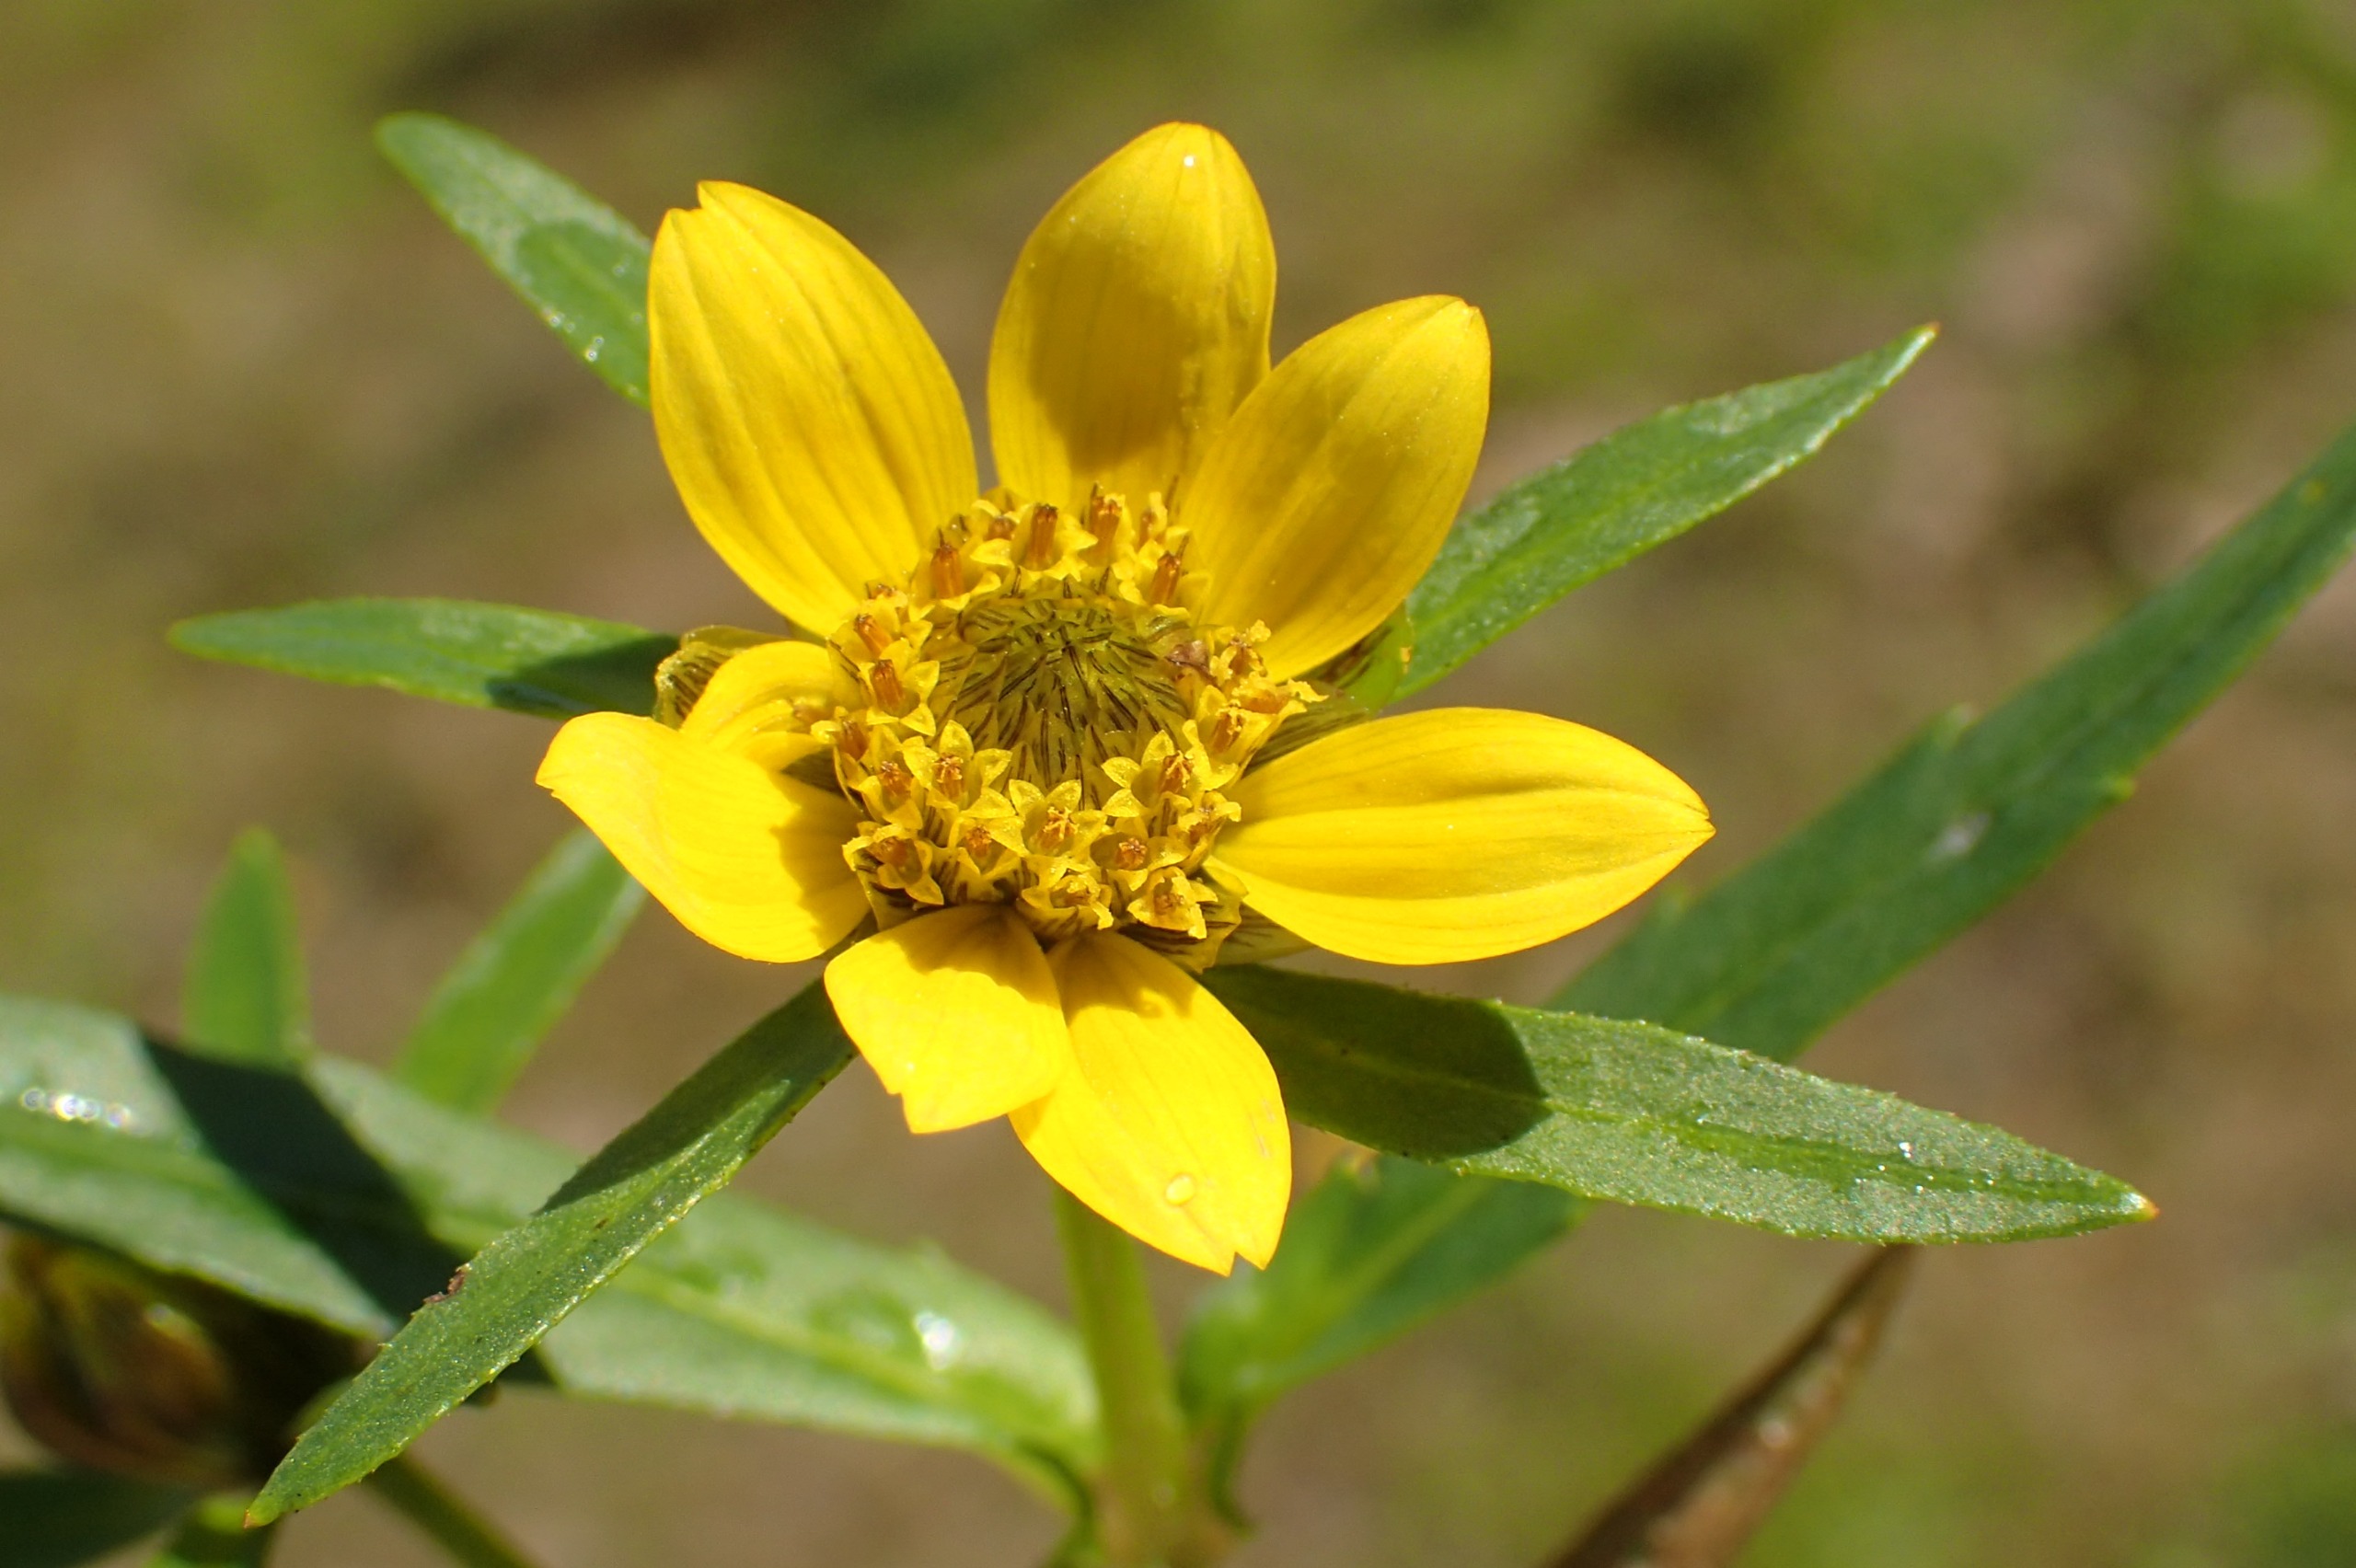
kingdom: Plantae
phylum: Tracheophyta
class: Magnoliopsida
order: Asterales
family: Asteraceae
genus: Bidens
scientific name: Bidens cernua
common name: Nikkende brøndsel
